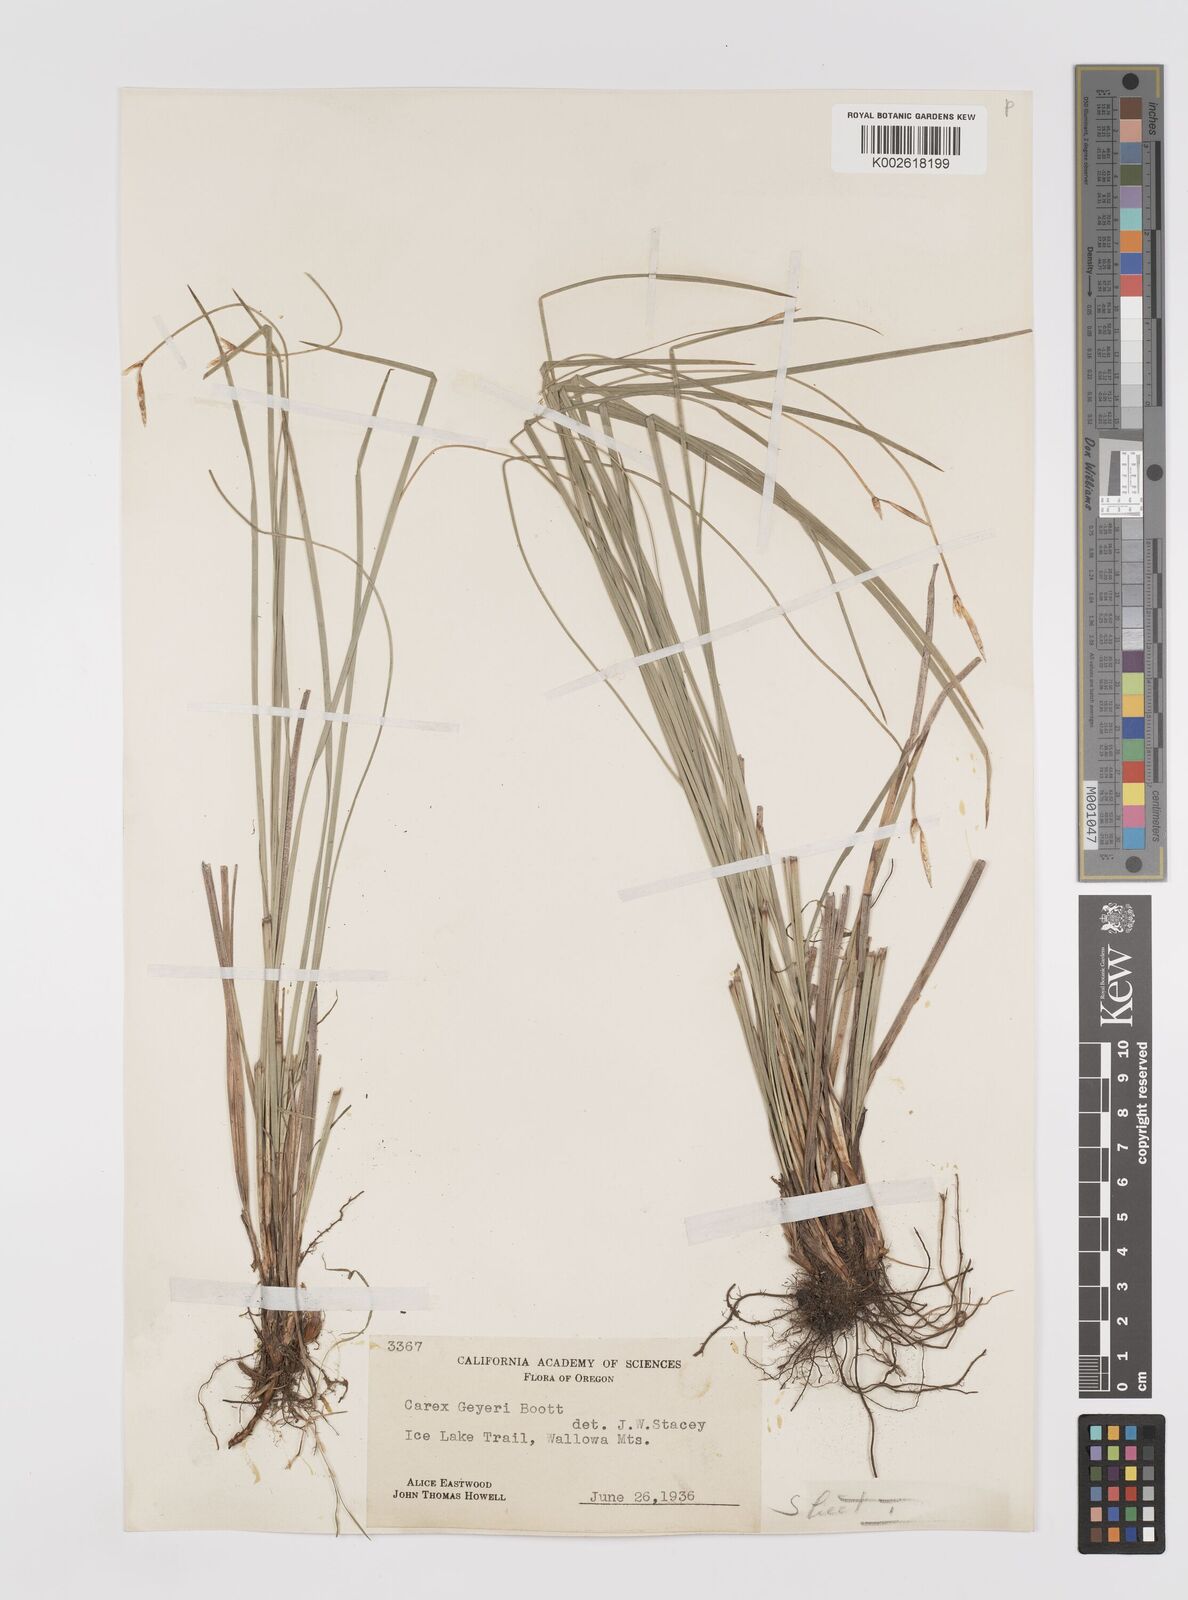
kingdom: Plantae
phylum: Tracheophyta
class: Liliopsida
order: Poales
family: Cyperaceae
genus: Carex
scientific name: Carex geyeri
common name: Elk sedge
